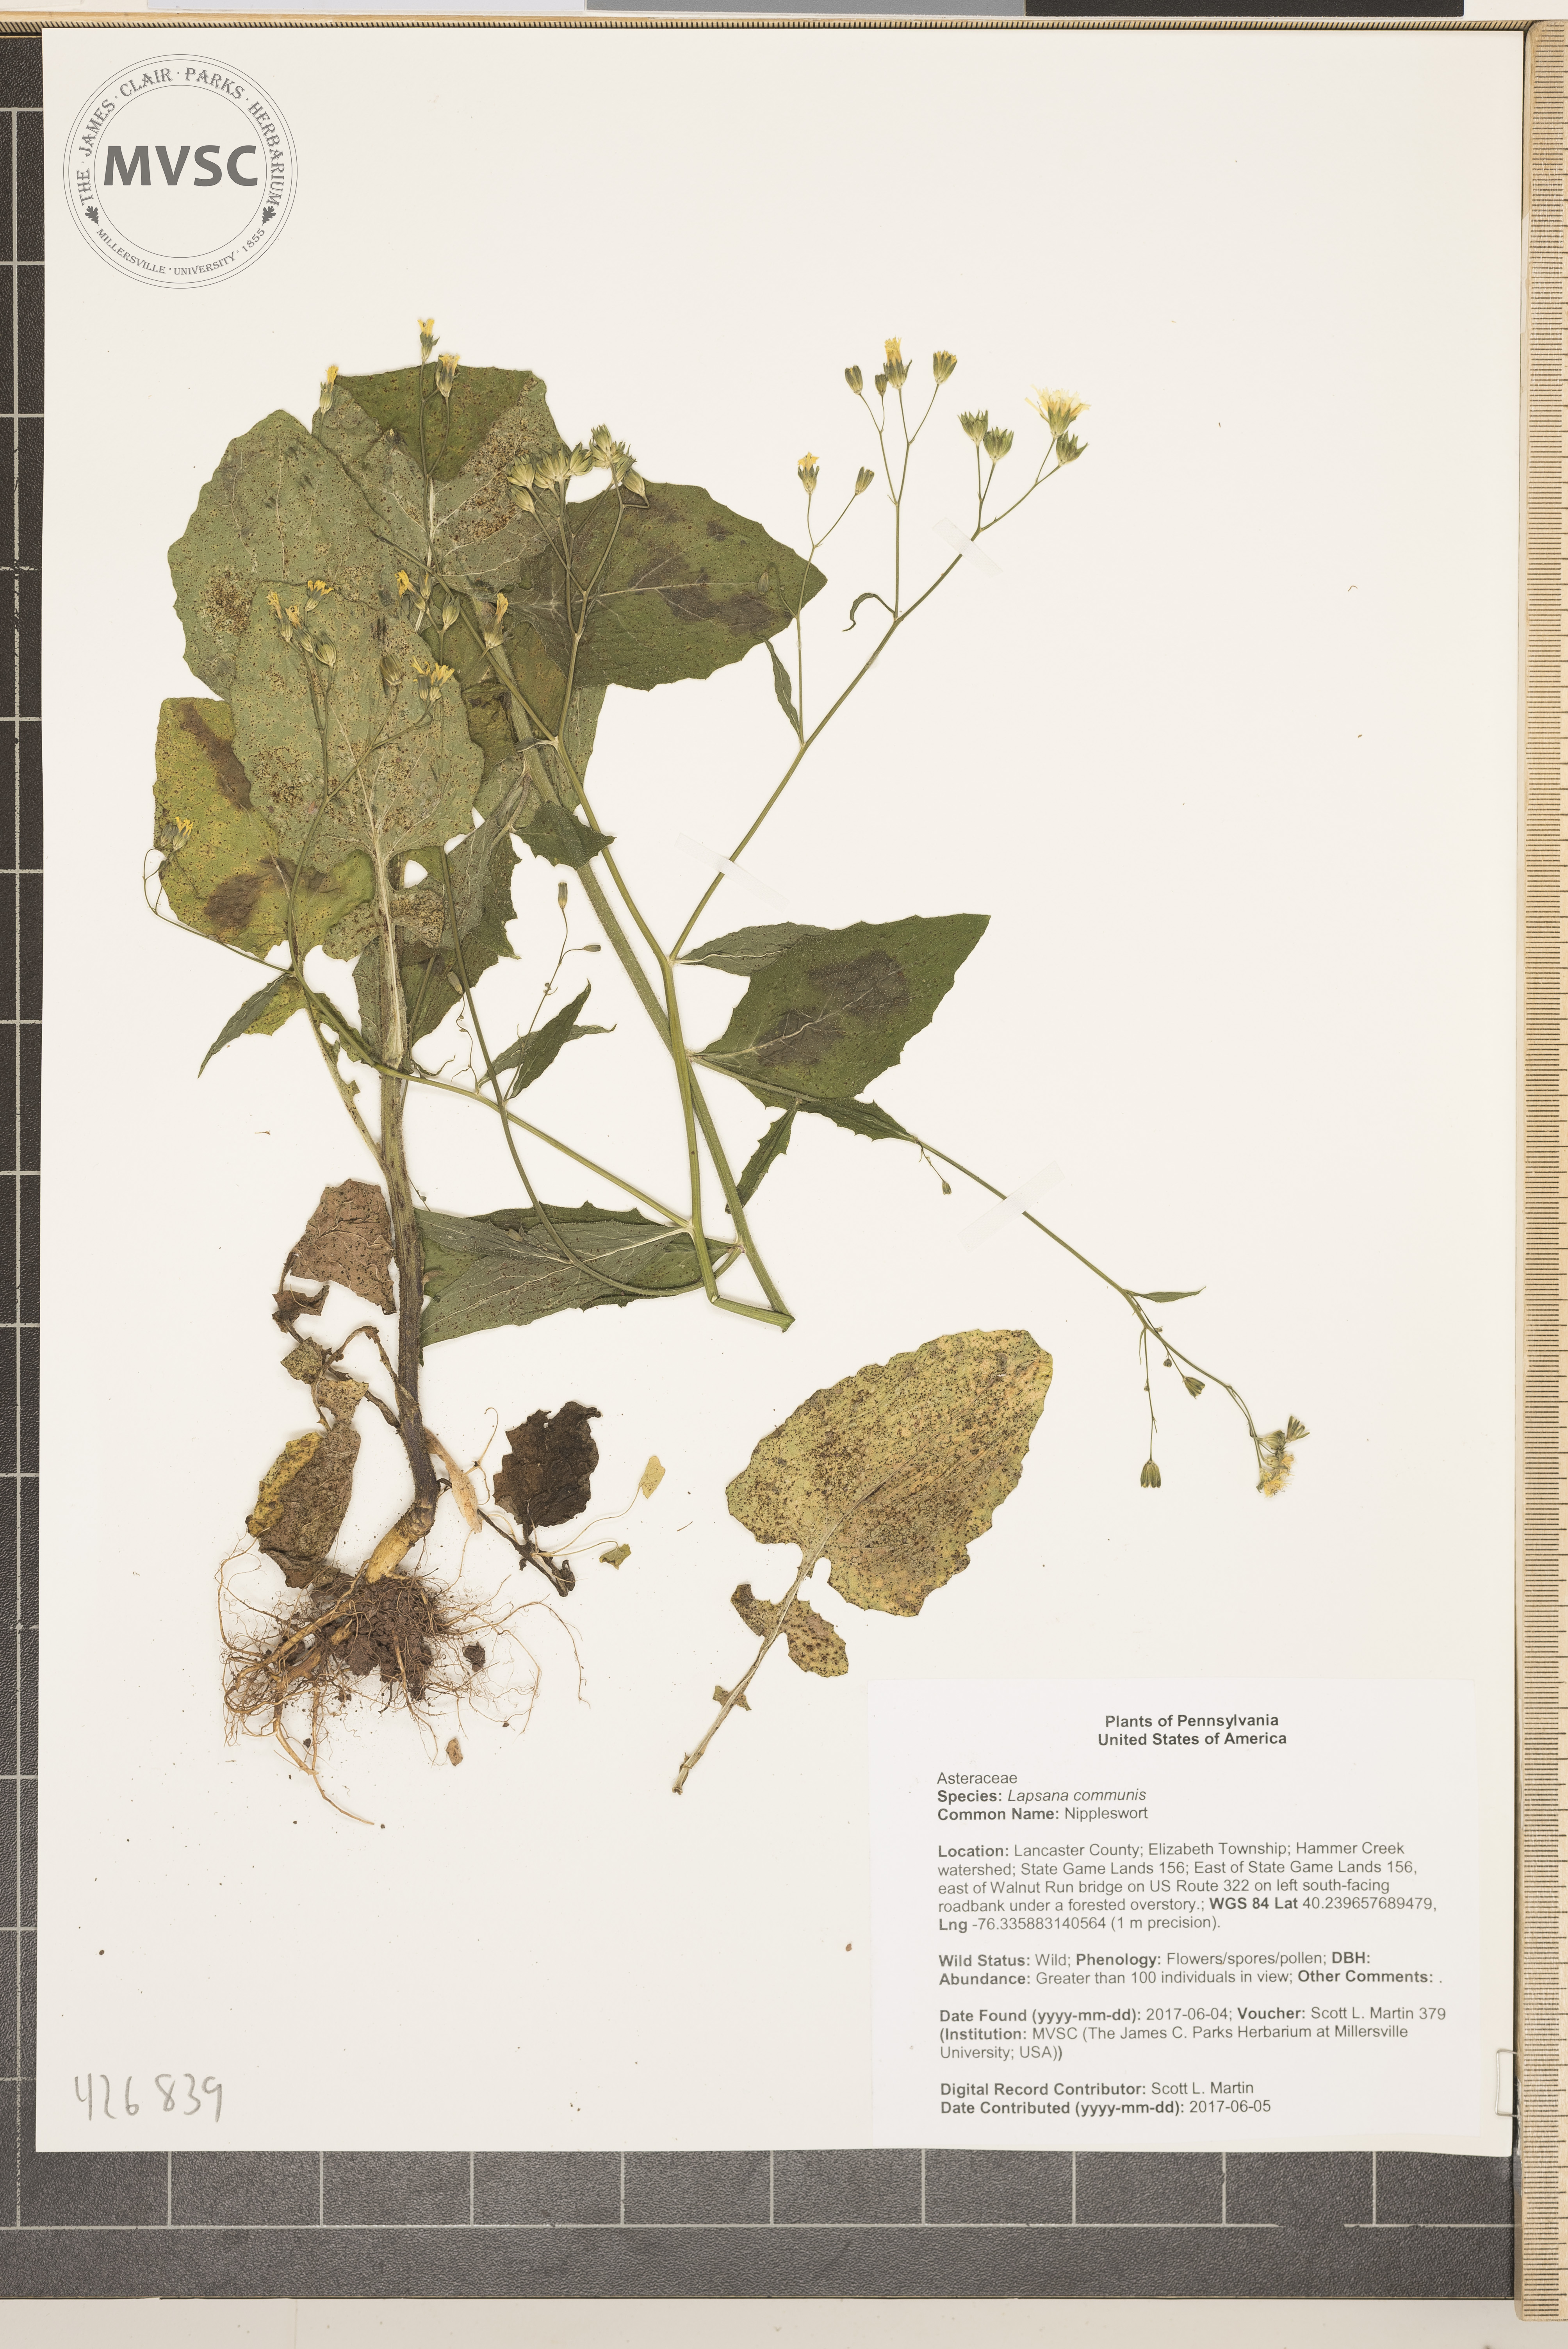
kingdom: Plantae
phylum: Tracheophyta
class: Magnoliopsida
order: Asterales
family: Asteraceae
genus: Lapsana
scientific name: Lapsana communis
